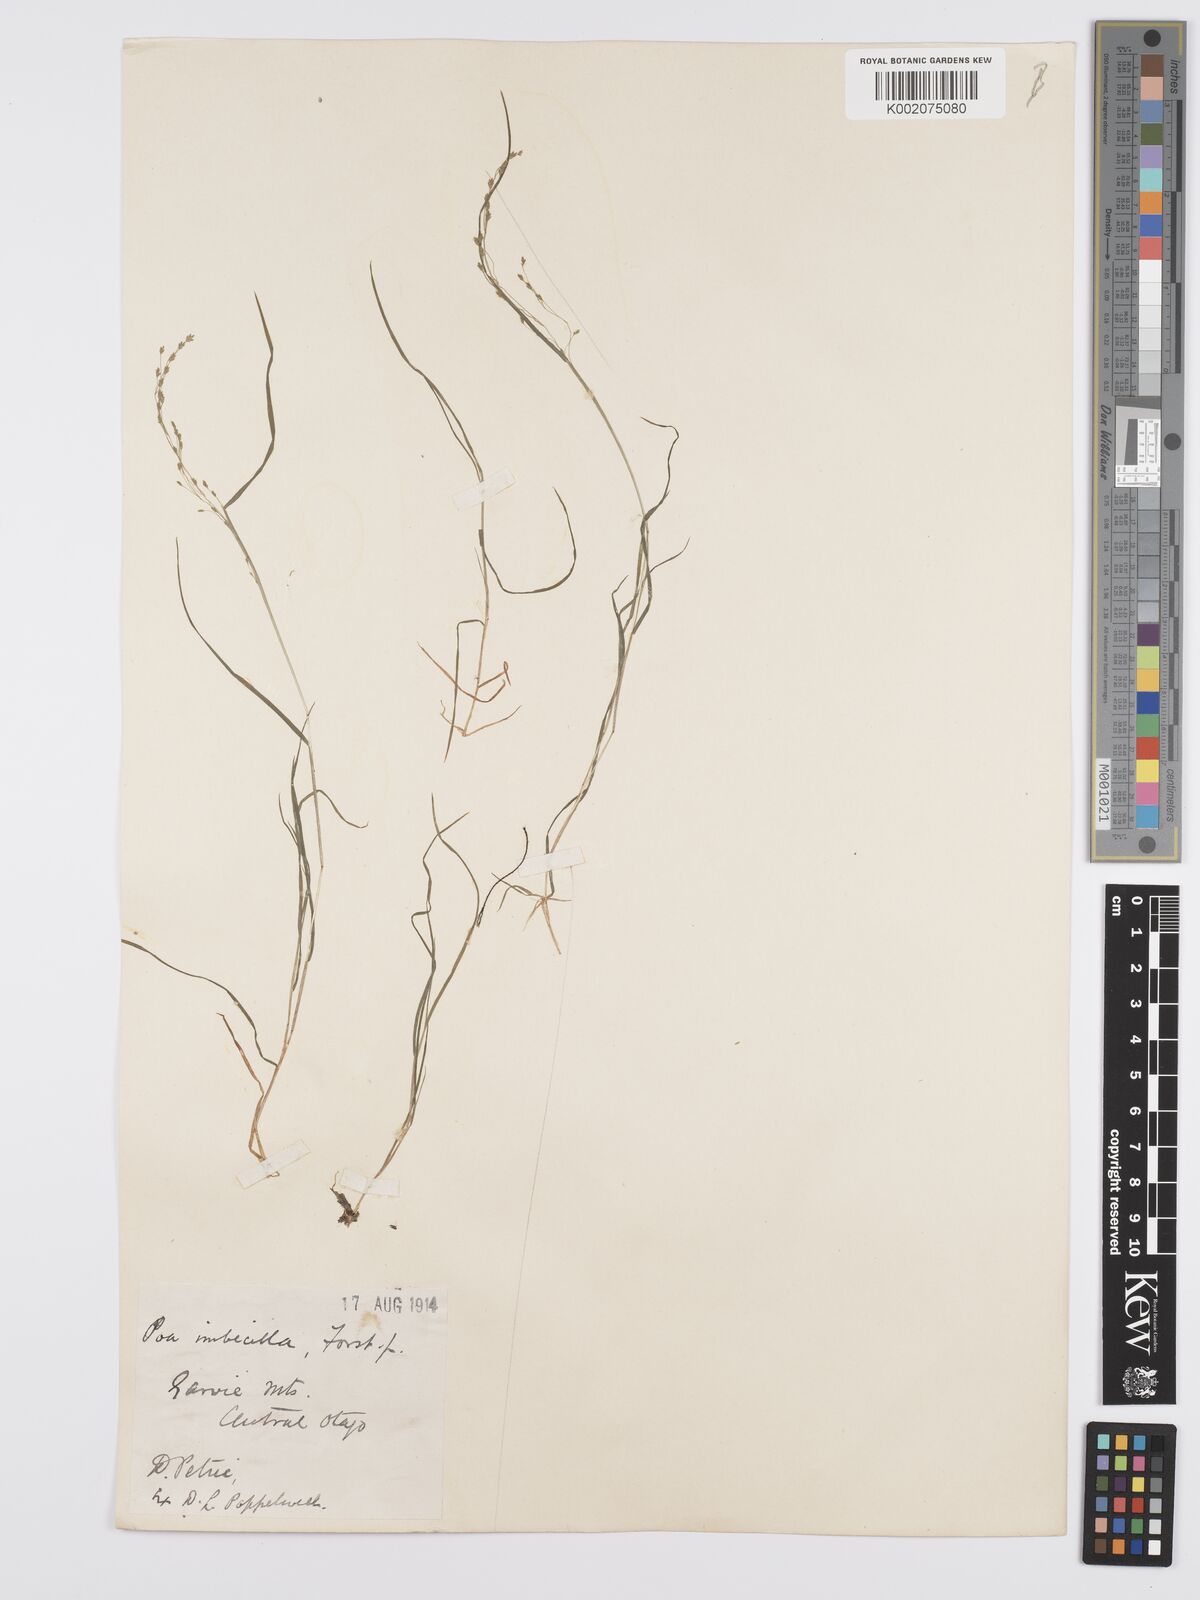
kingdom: Plantae
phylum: Tracheophyta
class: Liliopsida
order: Poales
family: Poaceae
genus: Poa
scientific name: Poa breviglumis
